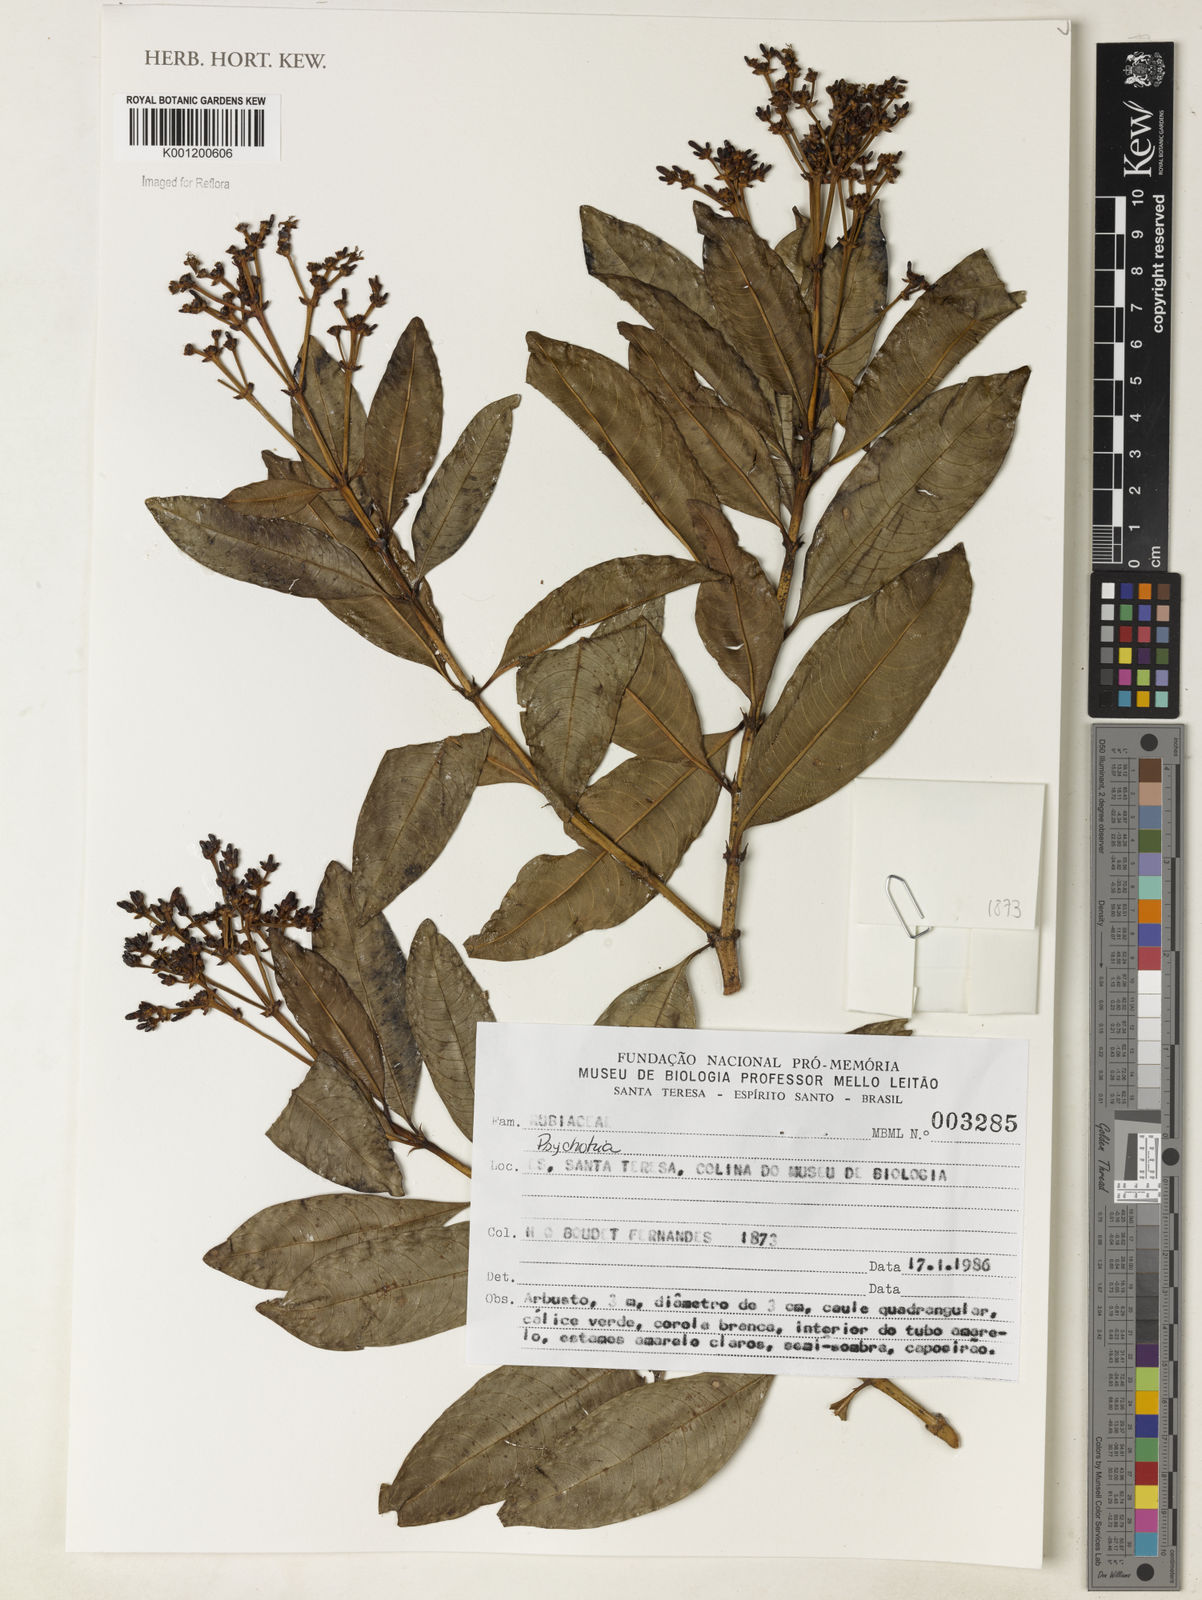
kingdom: Plantae
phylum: Tracheophyta
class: Magnoliopsida
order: Gentianales
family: Rubiaceae
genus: Psychotria
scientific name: Psychotria
